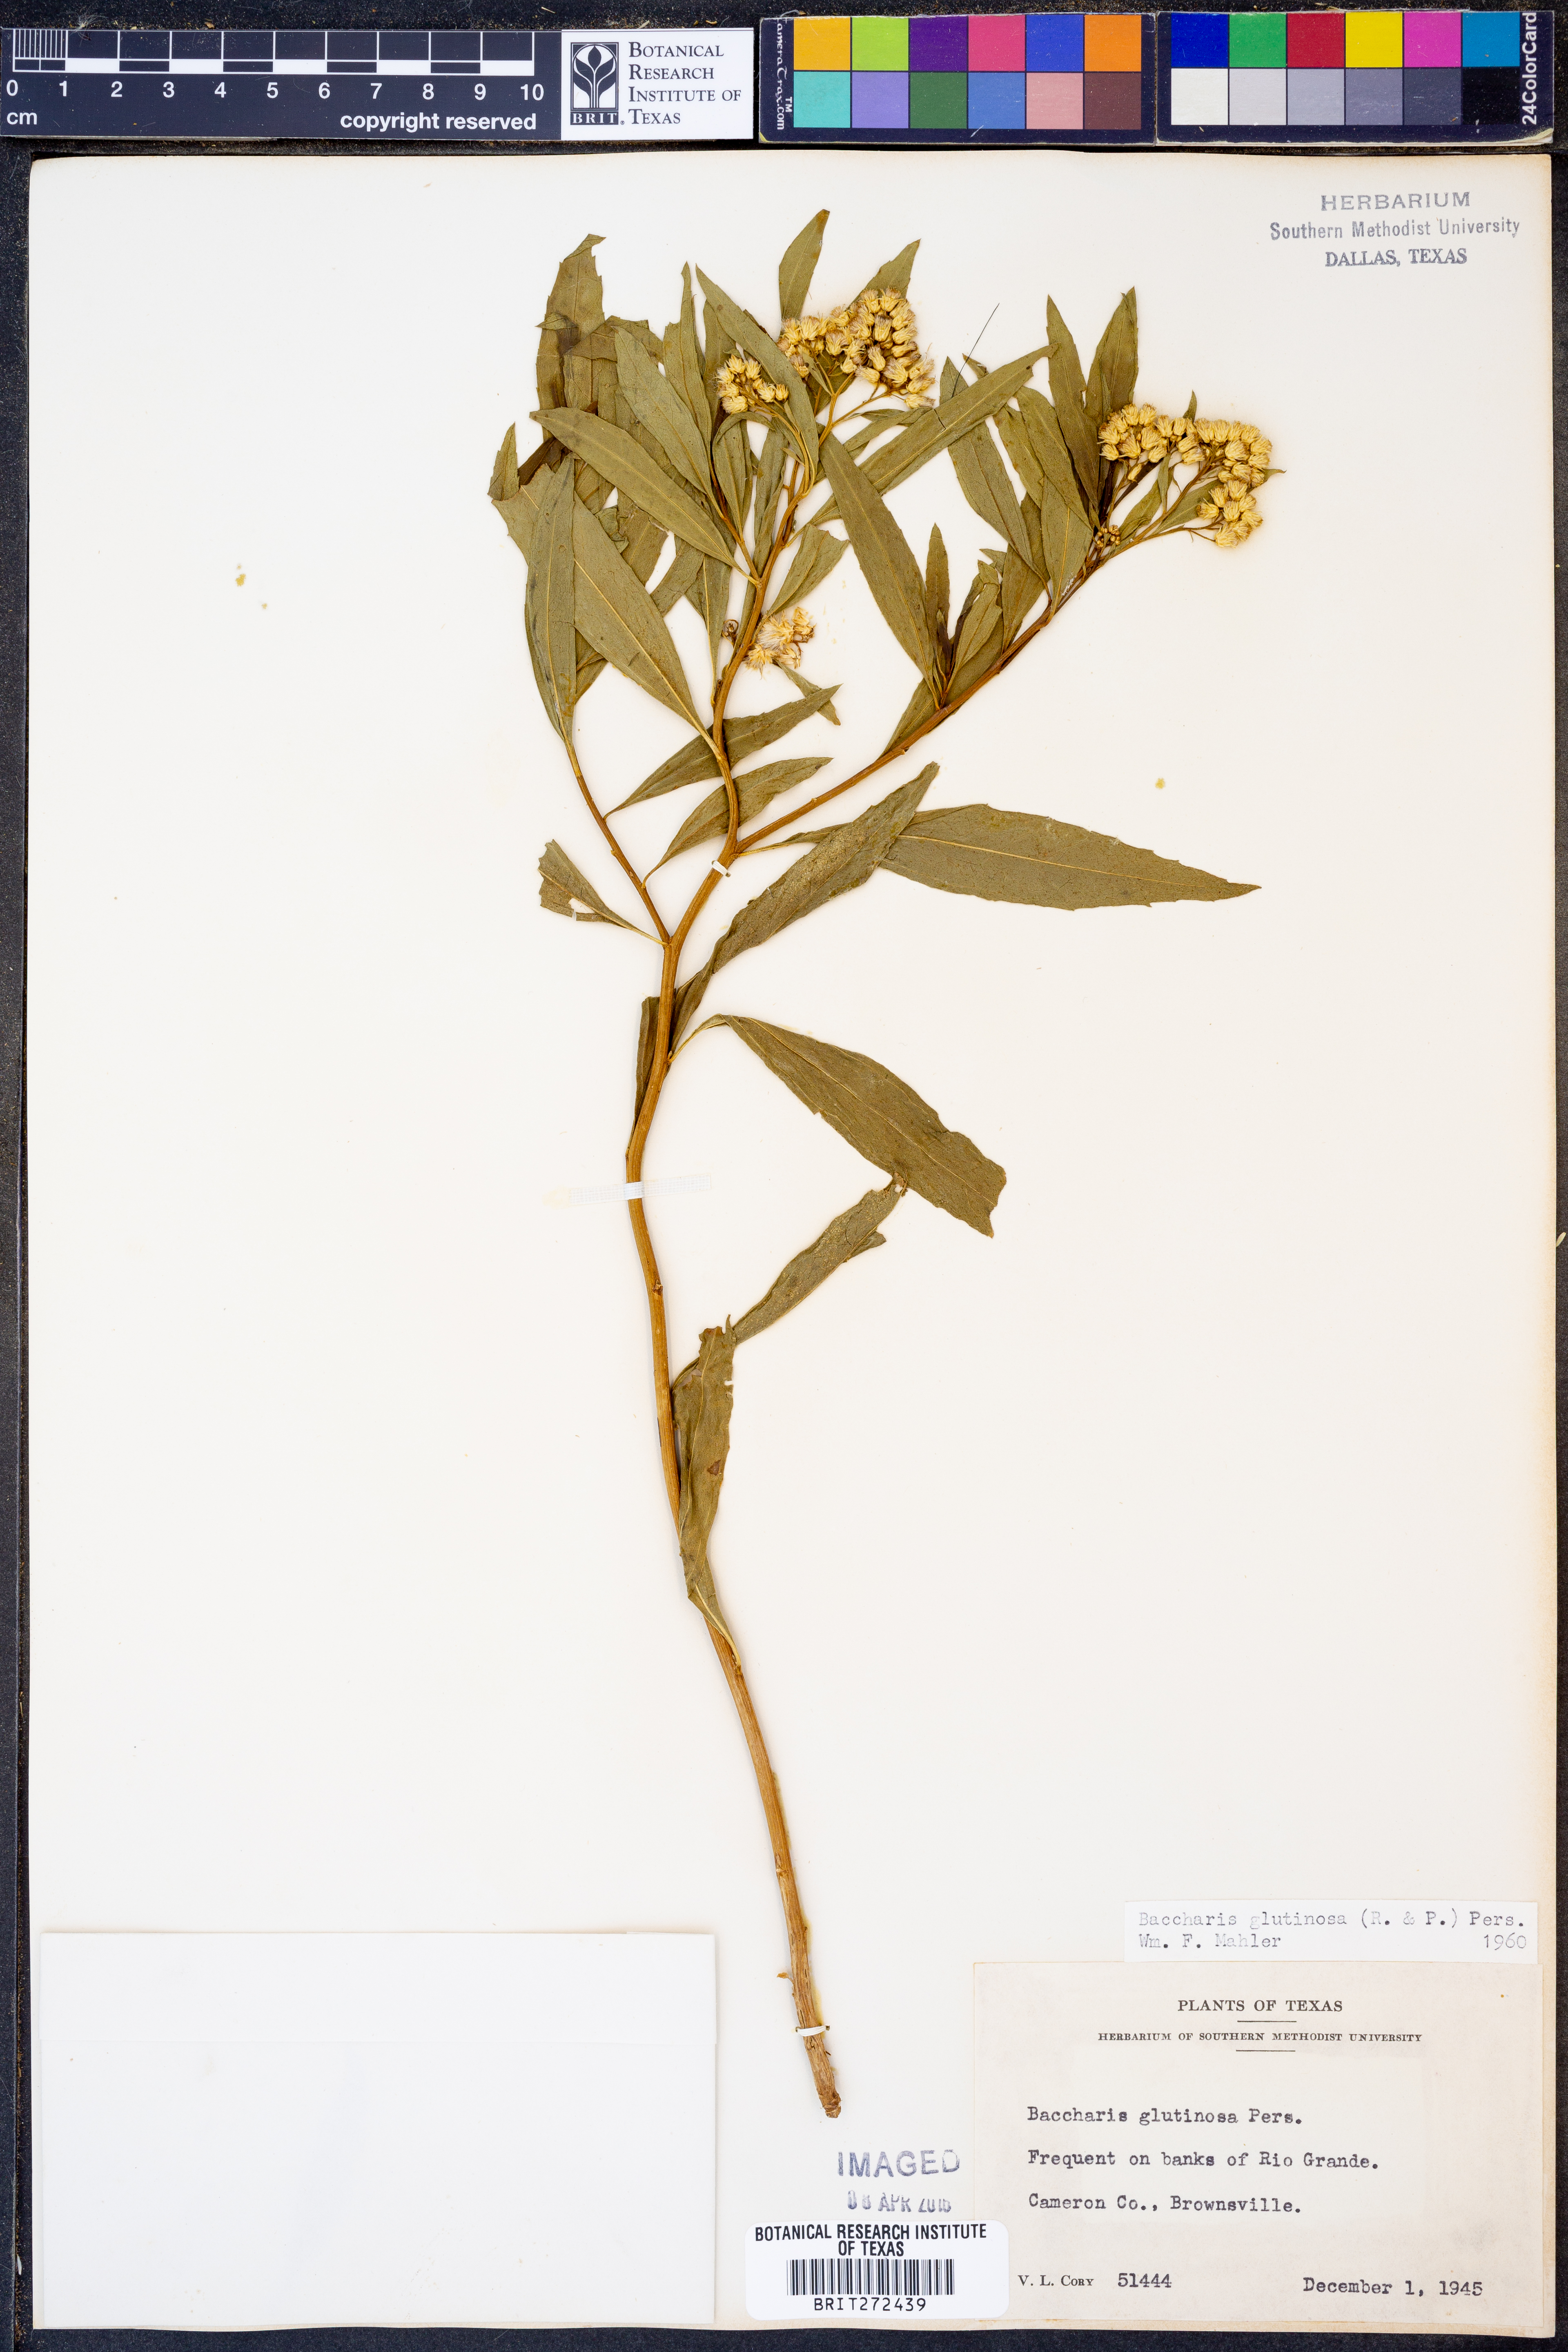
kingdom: Plantae
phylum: Tracheophyta
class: Magnoliopsida
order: Asterales
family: Asteraceae
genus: Baccharis
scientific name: Baccharis glutinosa
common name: Saltmarsh baccharis
